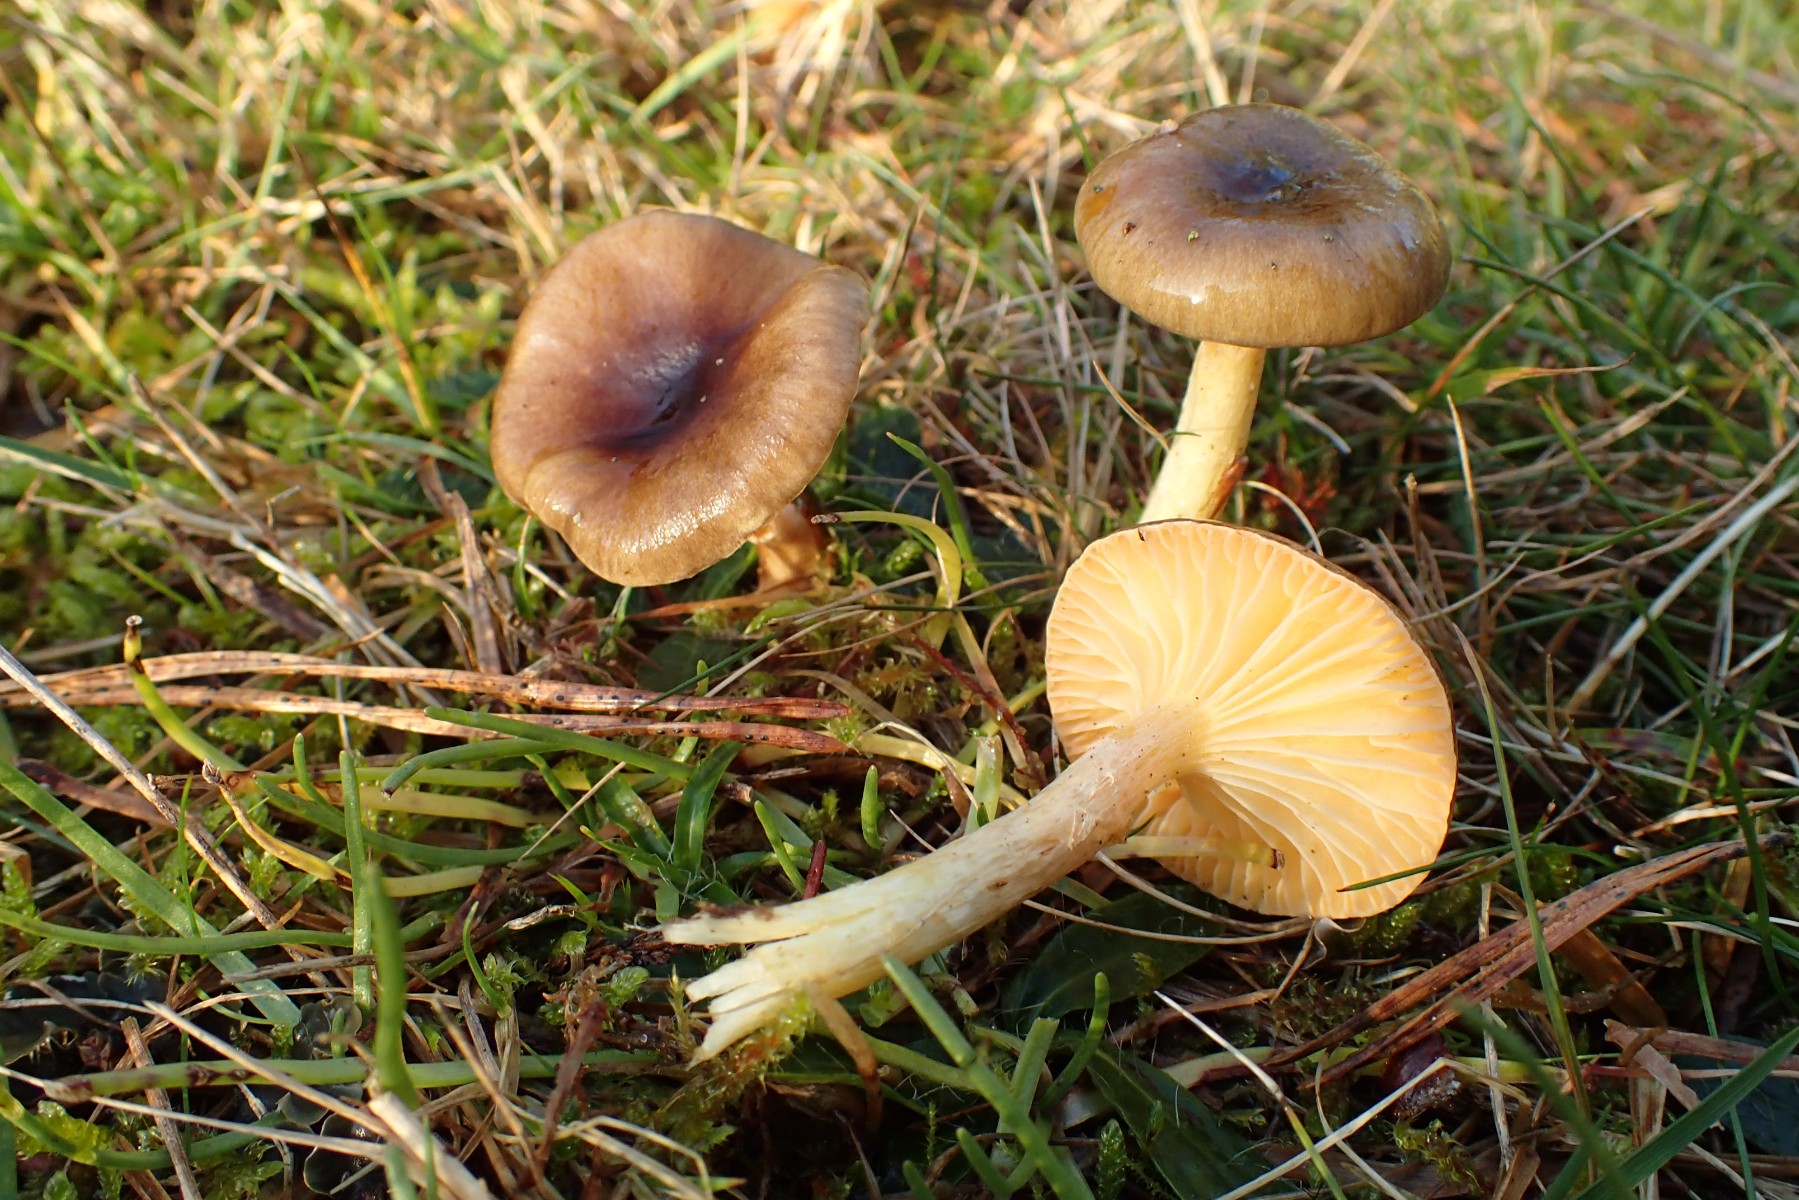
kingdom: Fungi
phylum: Basidiomycota
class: Agaricomycetes
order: Agaricales
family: Hygrophoraceae
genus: Hygrophorus
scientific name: Hygrophorus hypothejus
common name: frost-sneglehat
